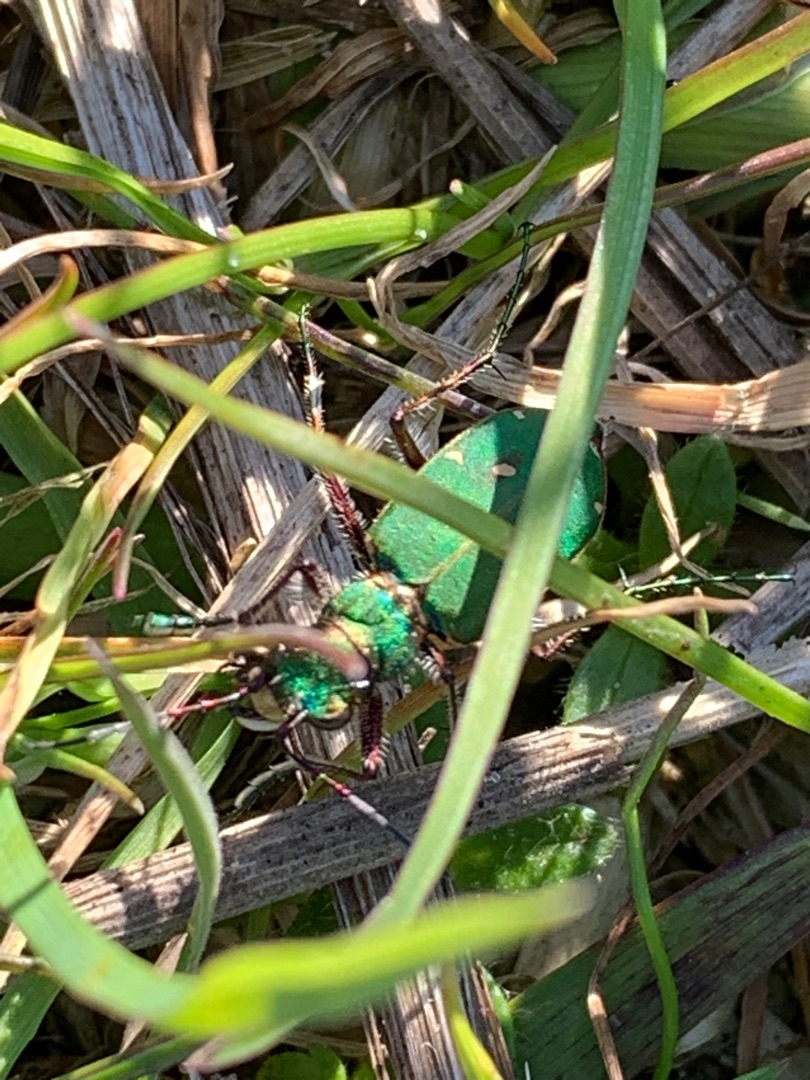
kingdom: Animalia
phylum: Arthropoda
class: Insecta
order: Coleoptera
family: Carabidae
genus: Cicindela
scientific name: Cicindela campestris
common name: Grøn sandspringer
